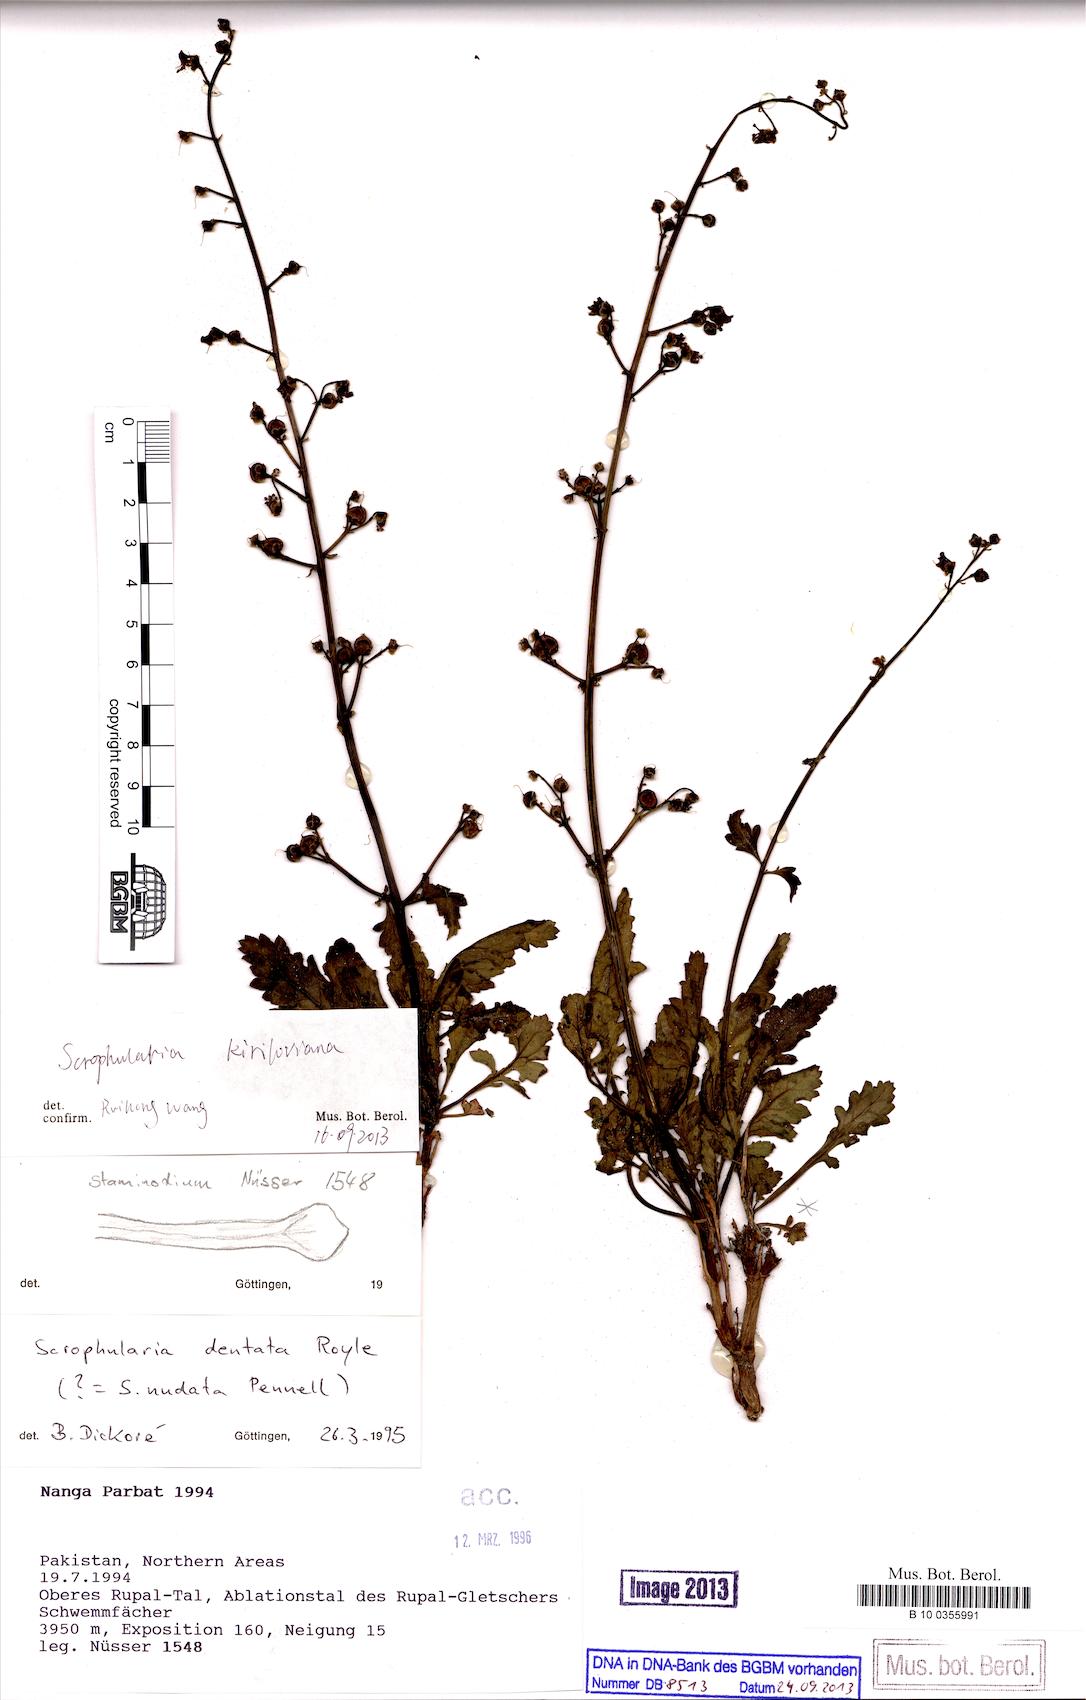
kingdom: Plantae
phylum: Tracheophyta
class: Magnoliopsida
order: Lamiales
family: Scrophulariaceae
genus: Scrophularia
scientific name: Scrophularia kiriloviana
